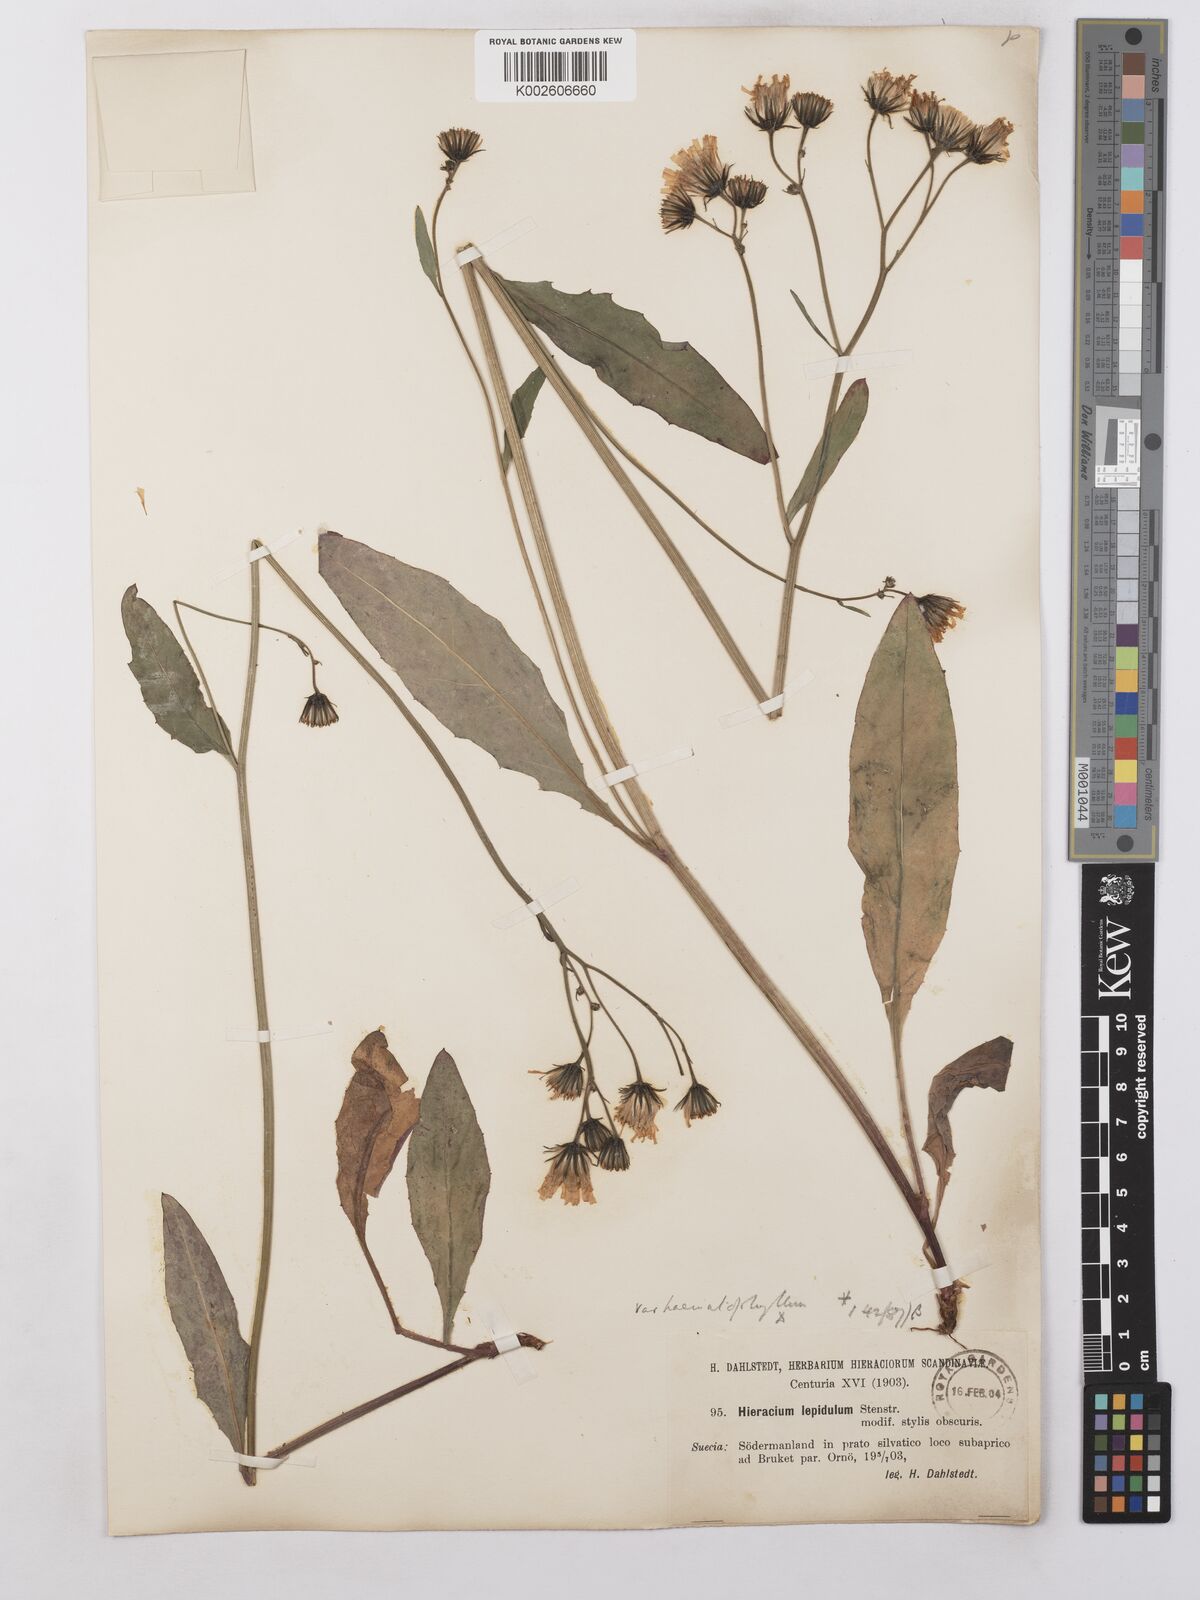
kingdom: Plantae
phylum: Tracheophyta
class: Magnoliopsida
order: Asterales
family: Asteraceae
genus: Hieracium
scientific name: Hieracium lepidulum
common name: Irregular-toothed hawkweed
